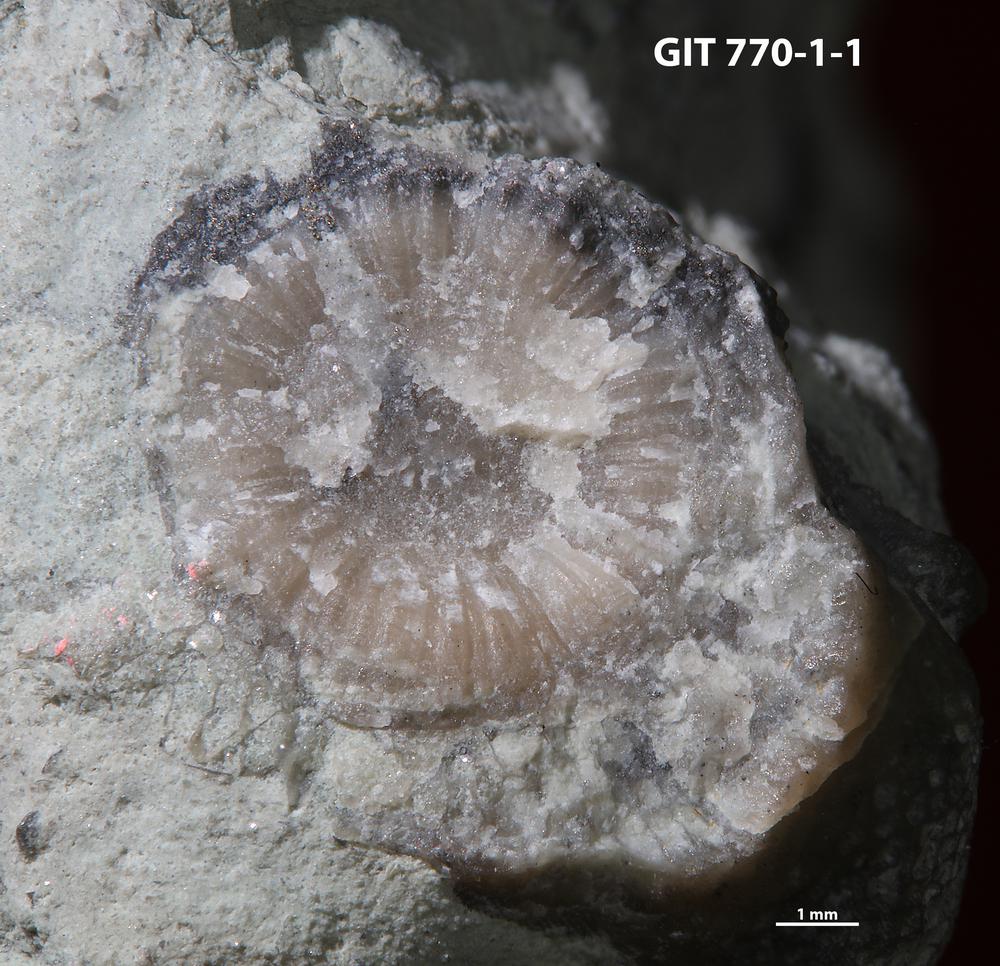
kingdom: Animalia
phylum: Bryozoa
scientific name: Bryozoa
